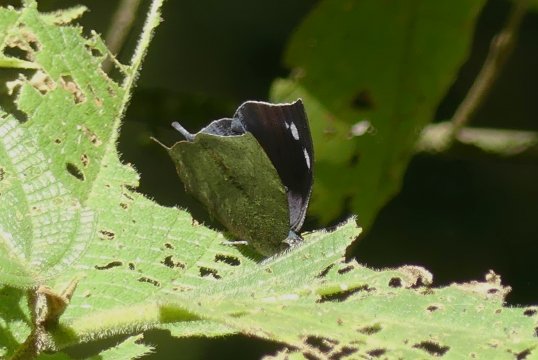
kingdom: Animalia
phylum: Arthropoda
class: Insecta
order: Lepidoptera
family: Nymphalidae
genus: Memphis
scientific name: Memphis moruus
